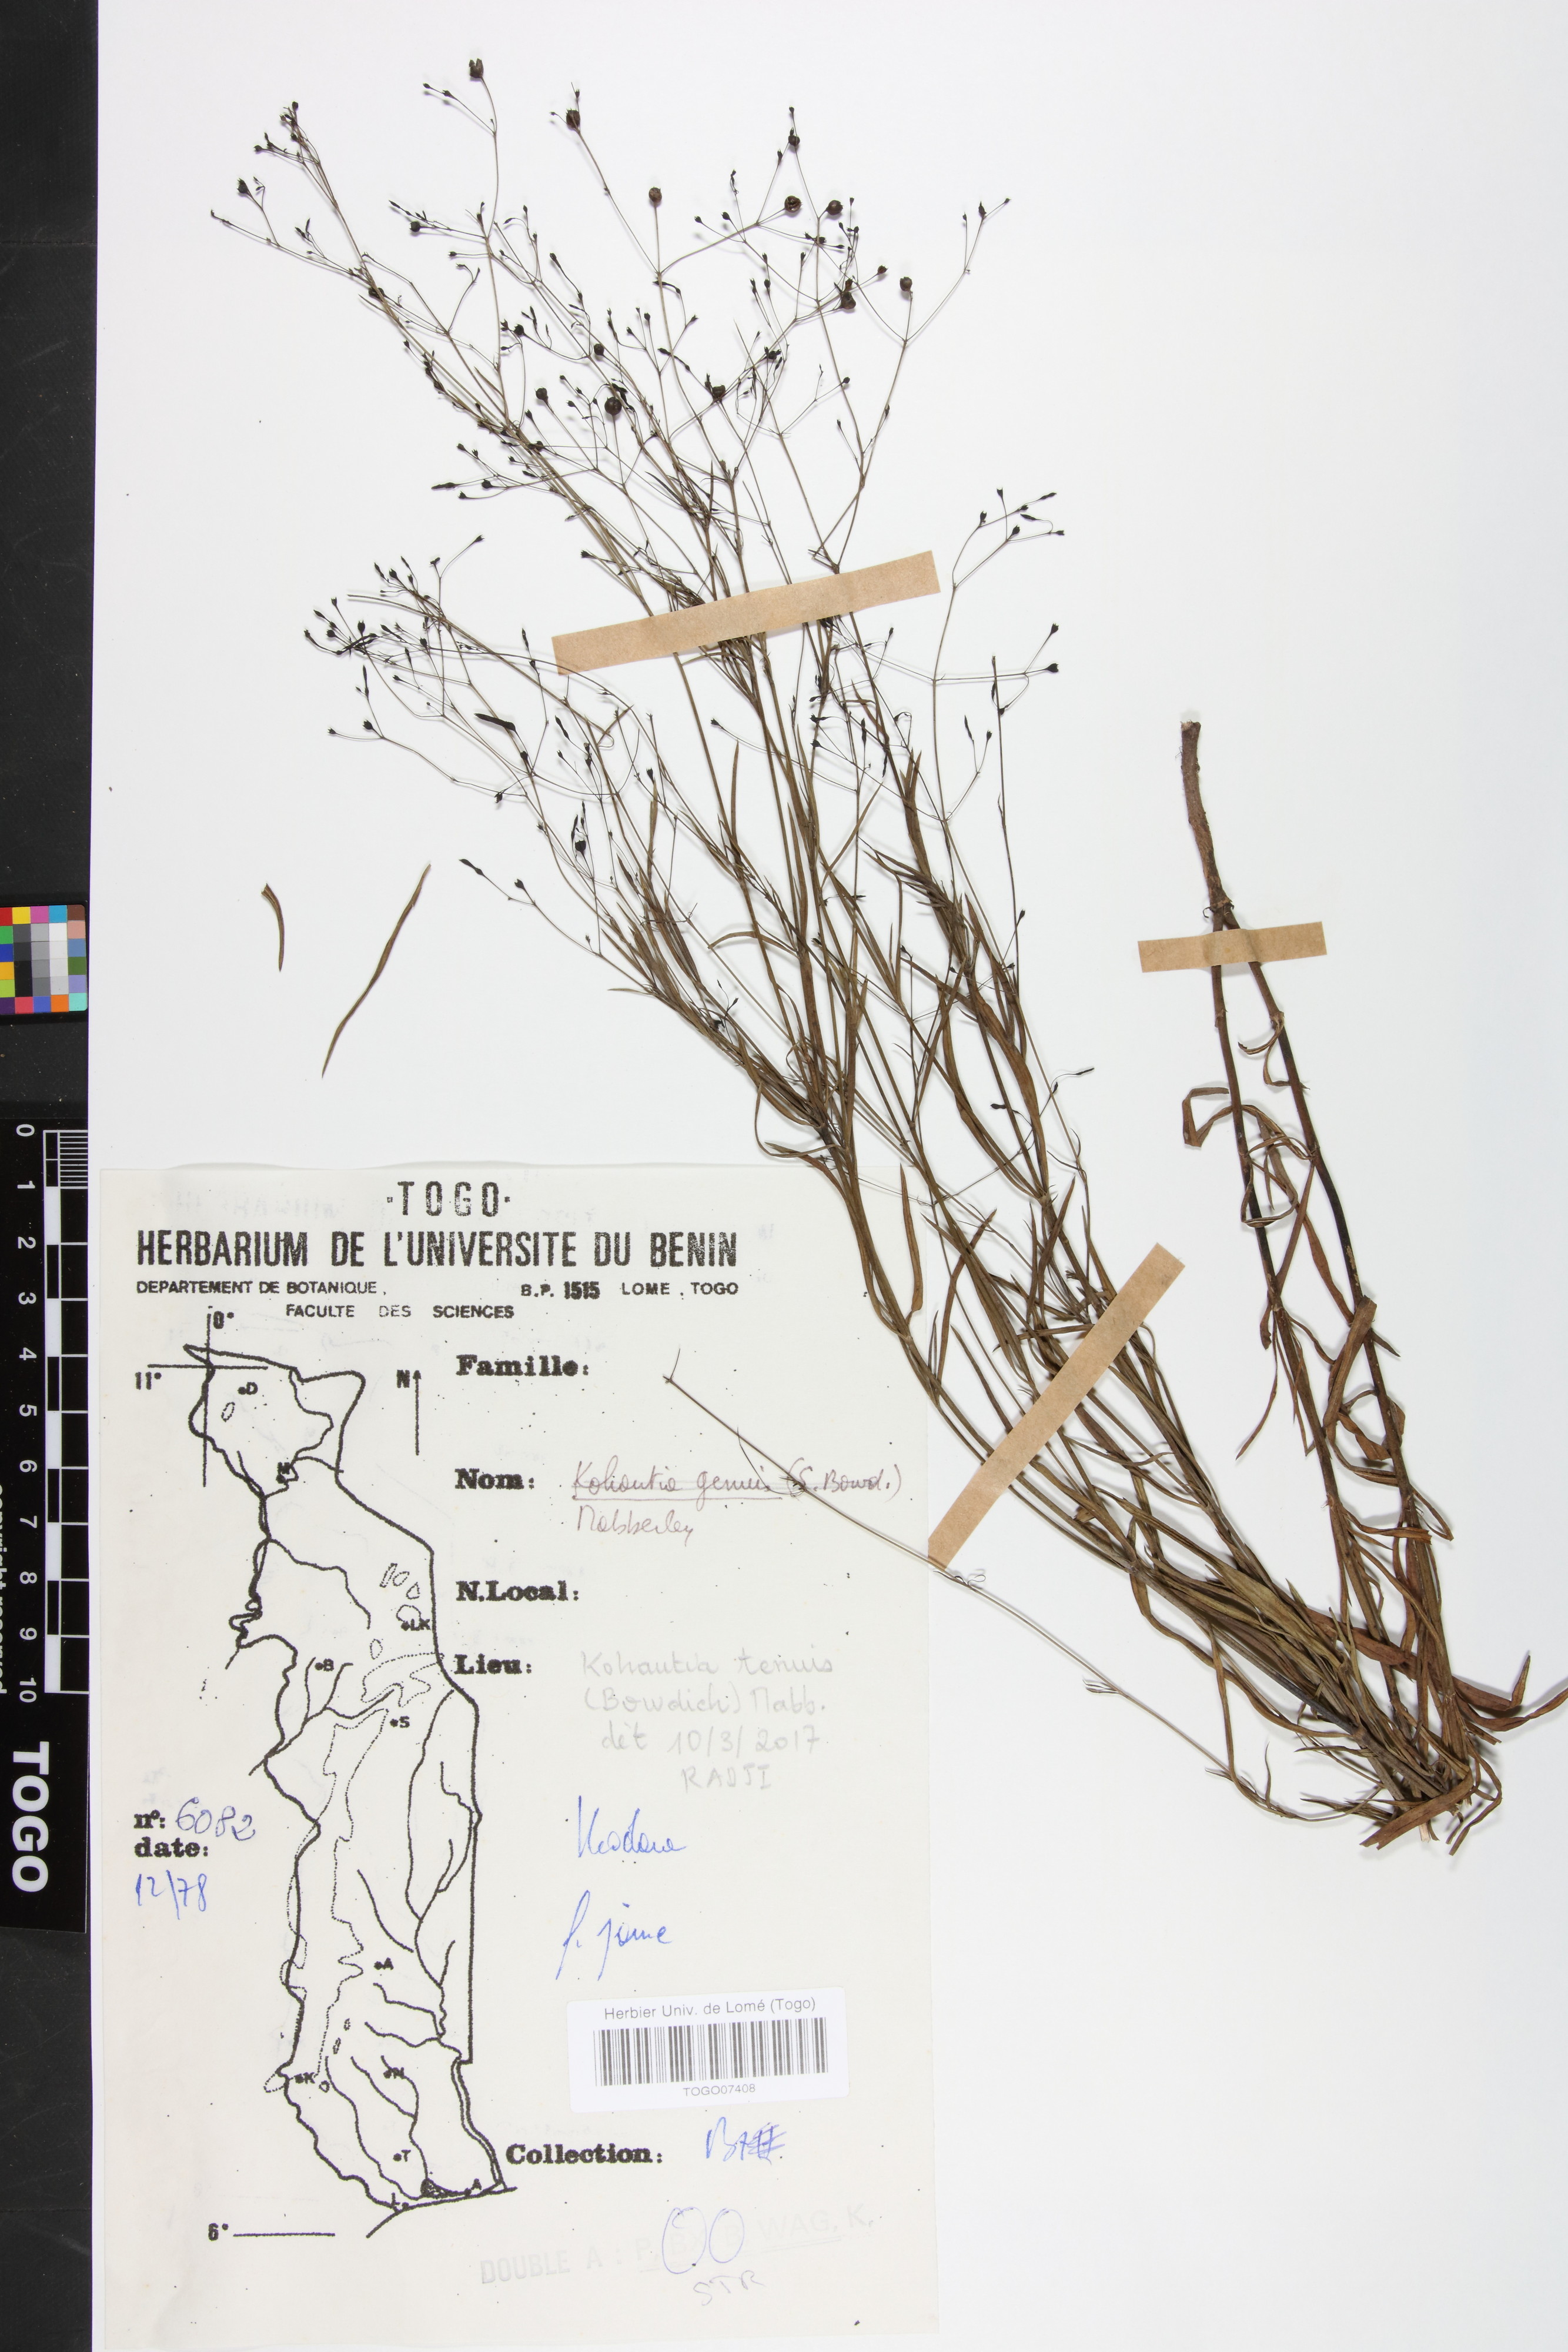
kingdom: Plantae
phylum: Tracheophyta
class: Magnoliopsida
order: Gentianales
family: Rubiaceae
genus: Kohautia
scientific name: Kohautia
